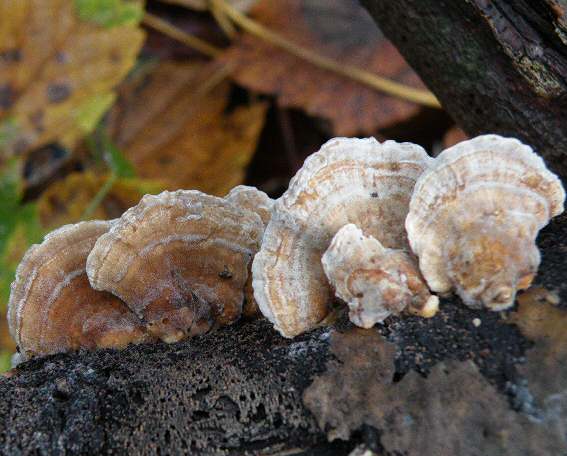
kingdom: Fungi
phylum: Basidiomycota
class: Agaricomycetes
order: Polyporales
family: Polyporaceae
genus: Trametes
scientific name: Trametes ochracea
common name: bæltet læderporesvamp
